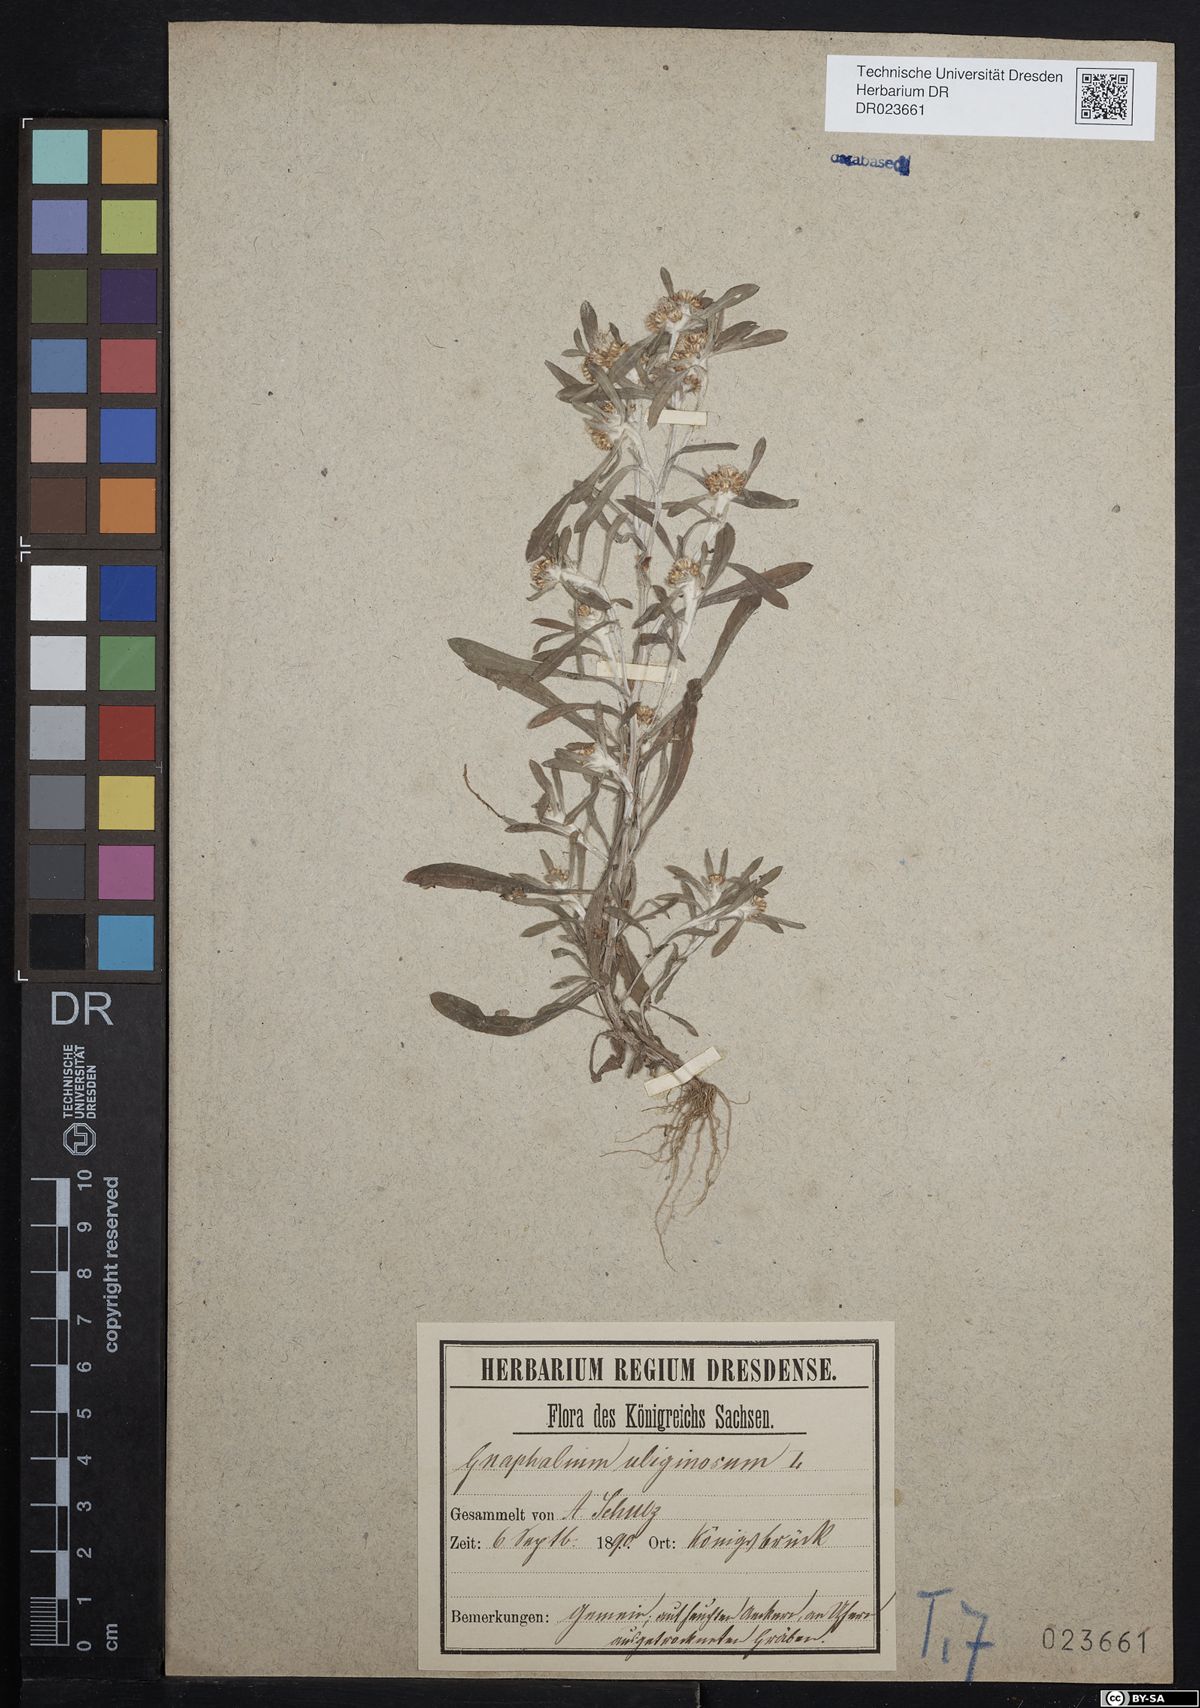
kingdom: Plantae
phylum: Tracheophyta
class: Magnoliopsida
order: Asterales
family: Asteraceae
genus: Gnaphalium
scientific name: Gnaphalium uliginosum
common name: Marsh cudweed
